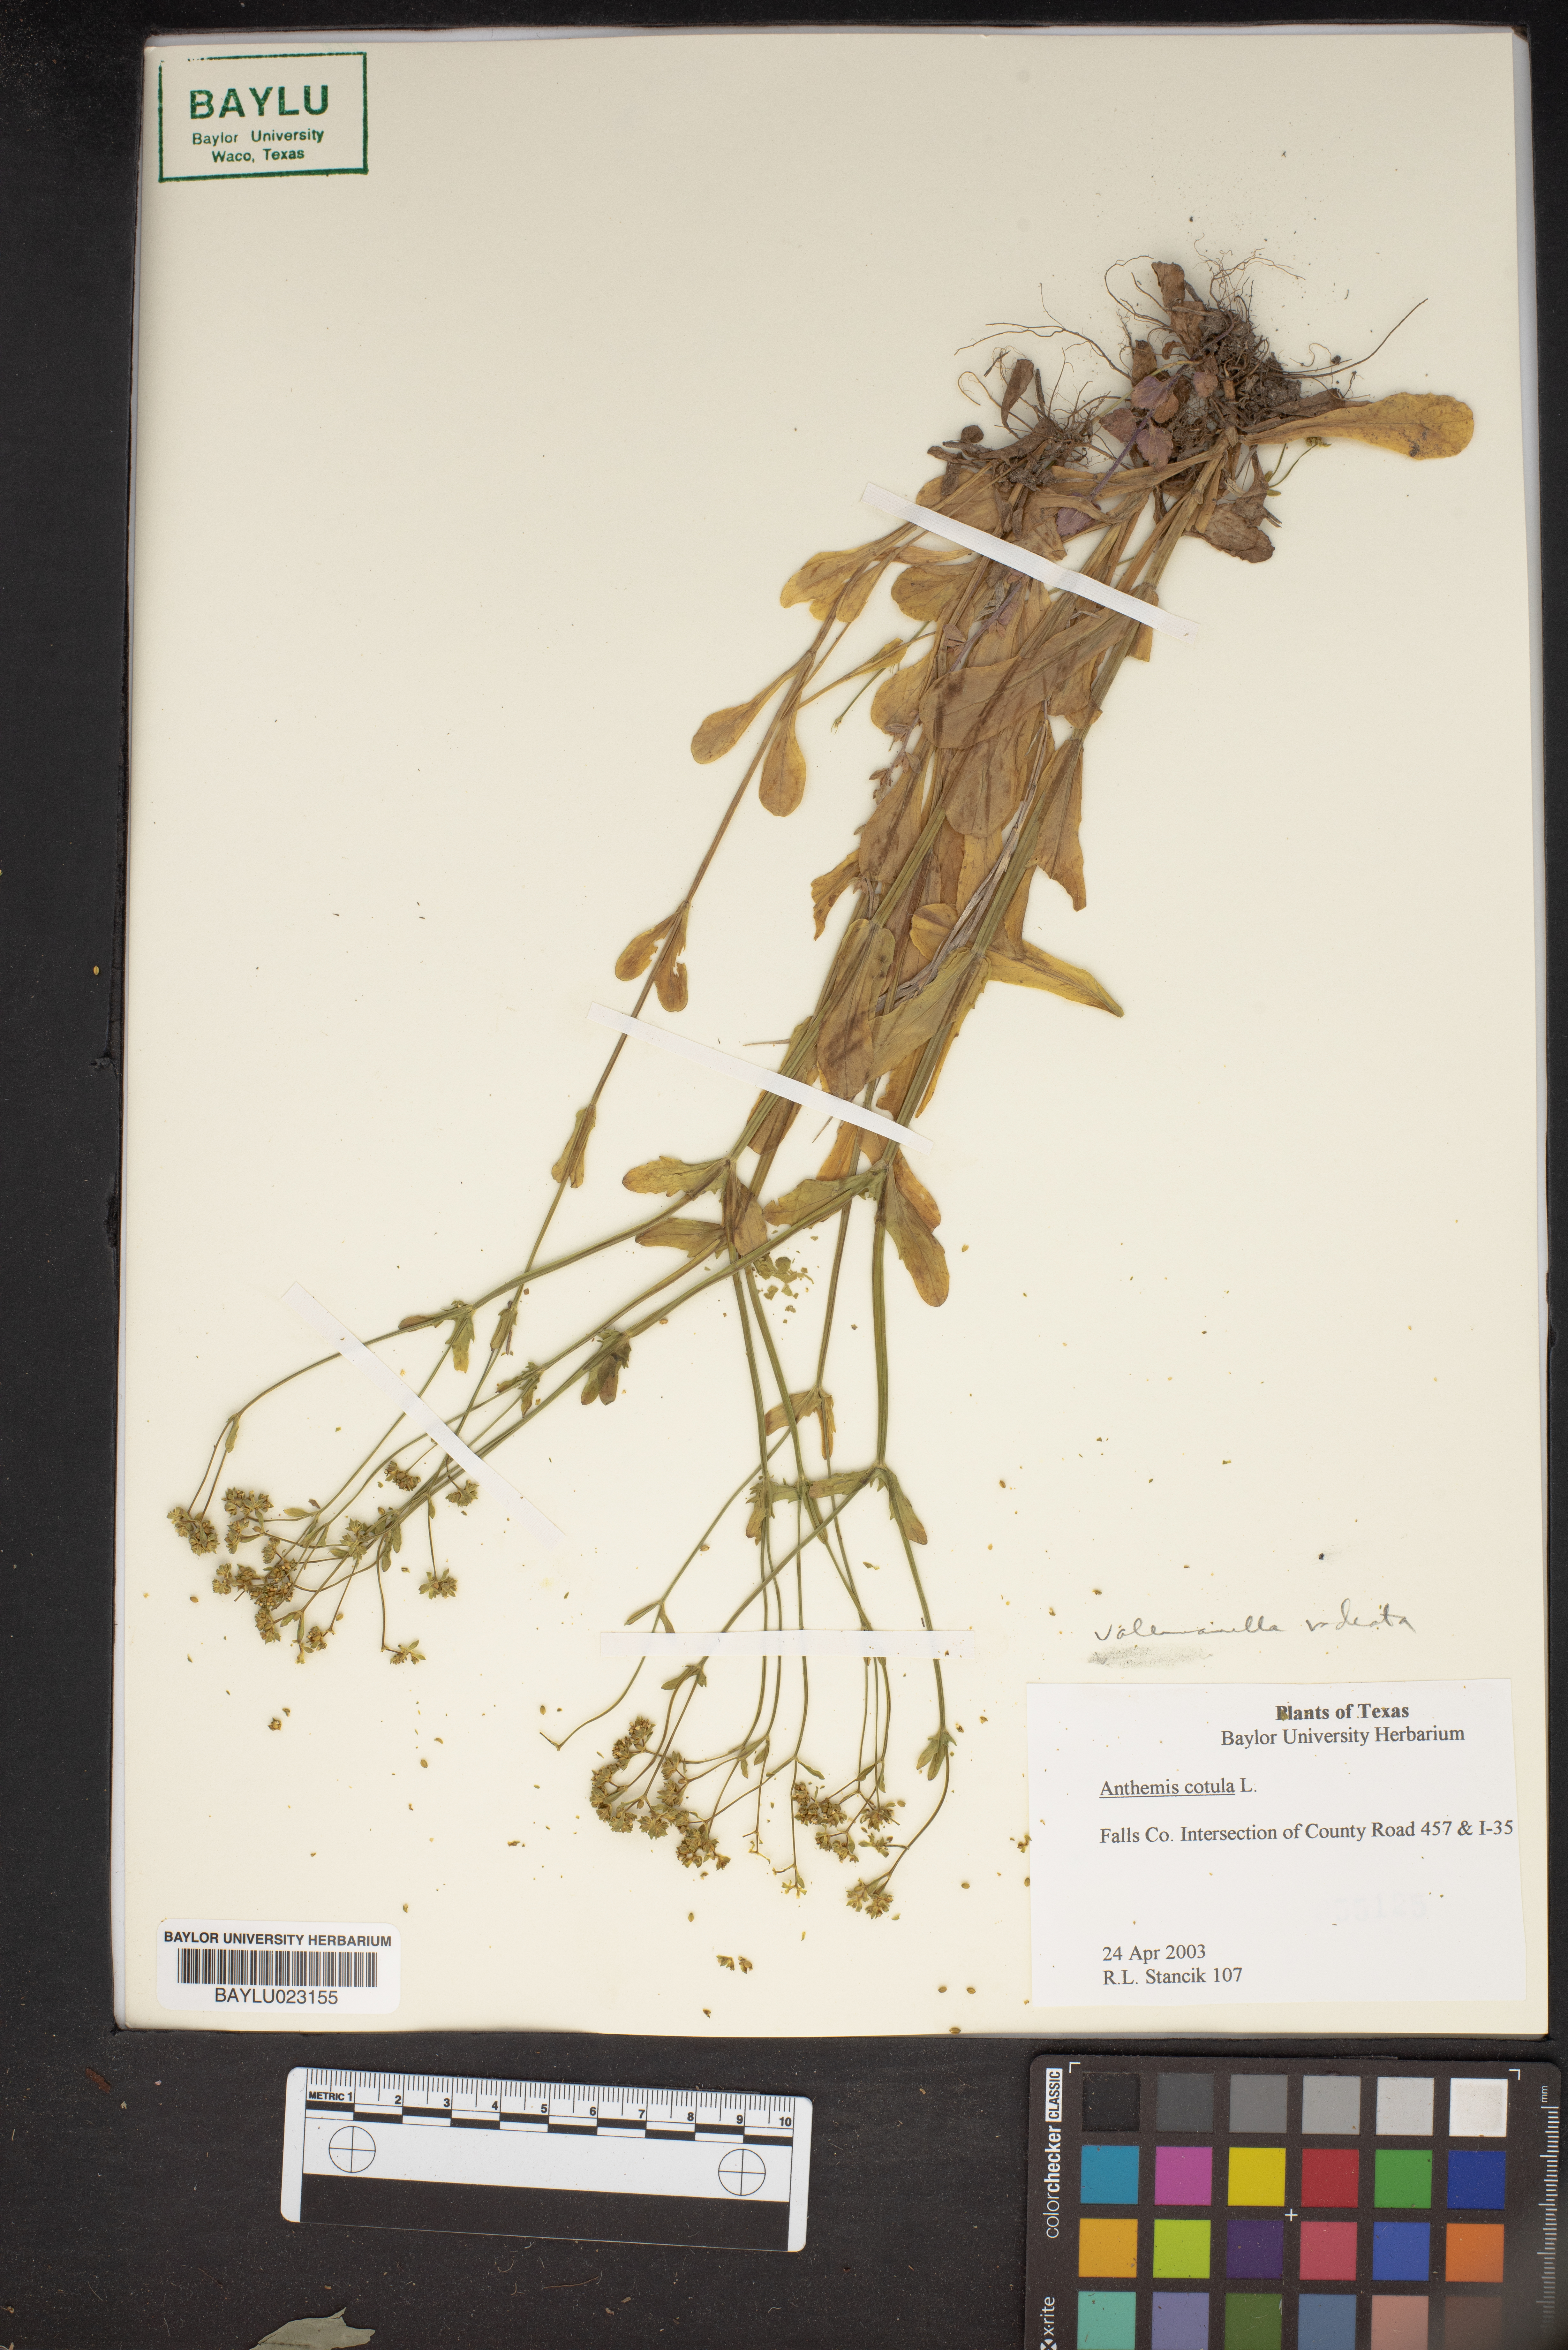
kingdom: Plantae
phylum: Tracheophyta
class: Magnoliopsida
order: Asterales
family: Asteraceae
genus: Anthemis
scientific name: Anthemis cotula
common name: Stinking chamomile
